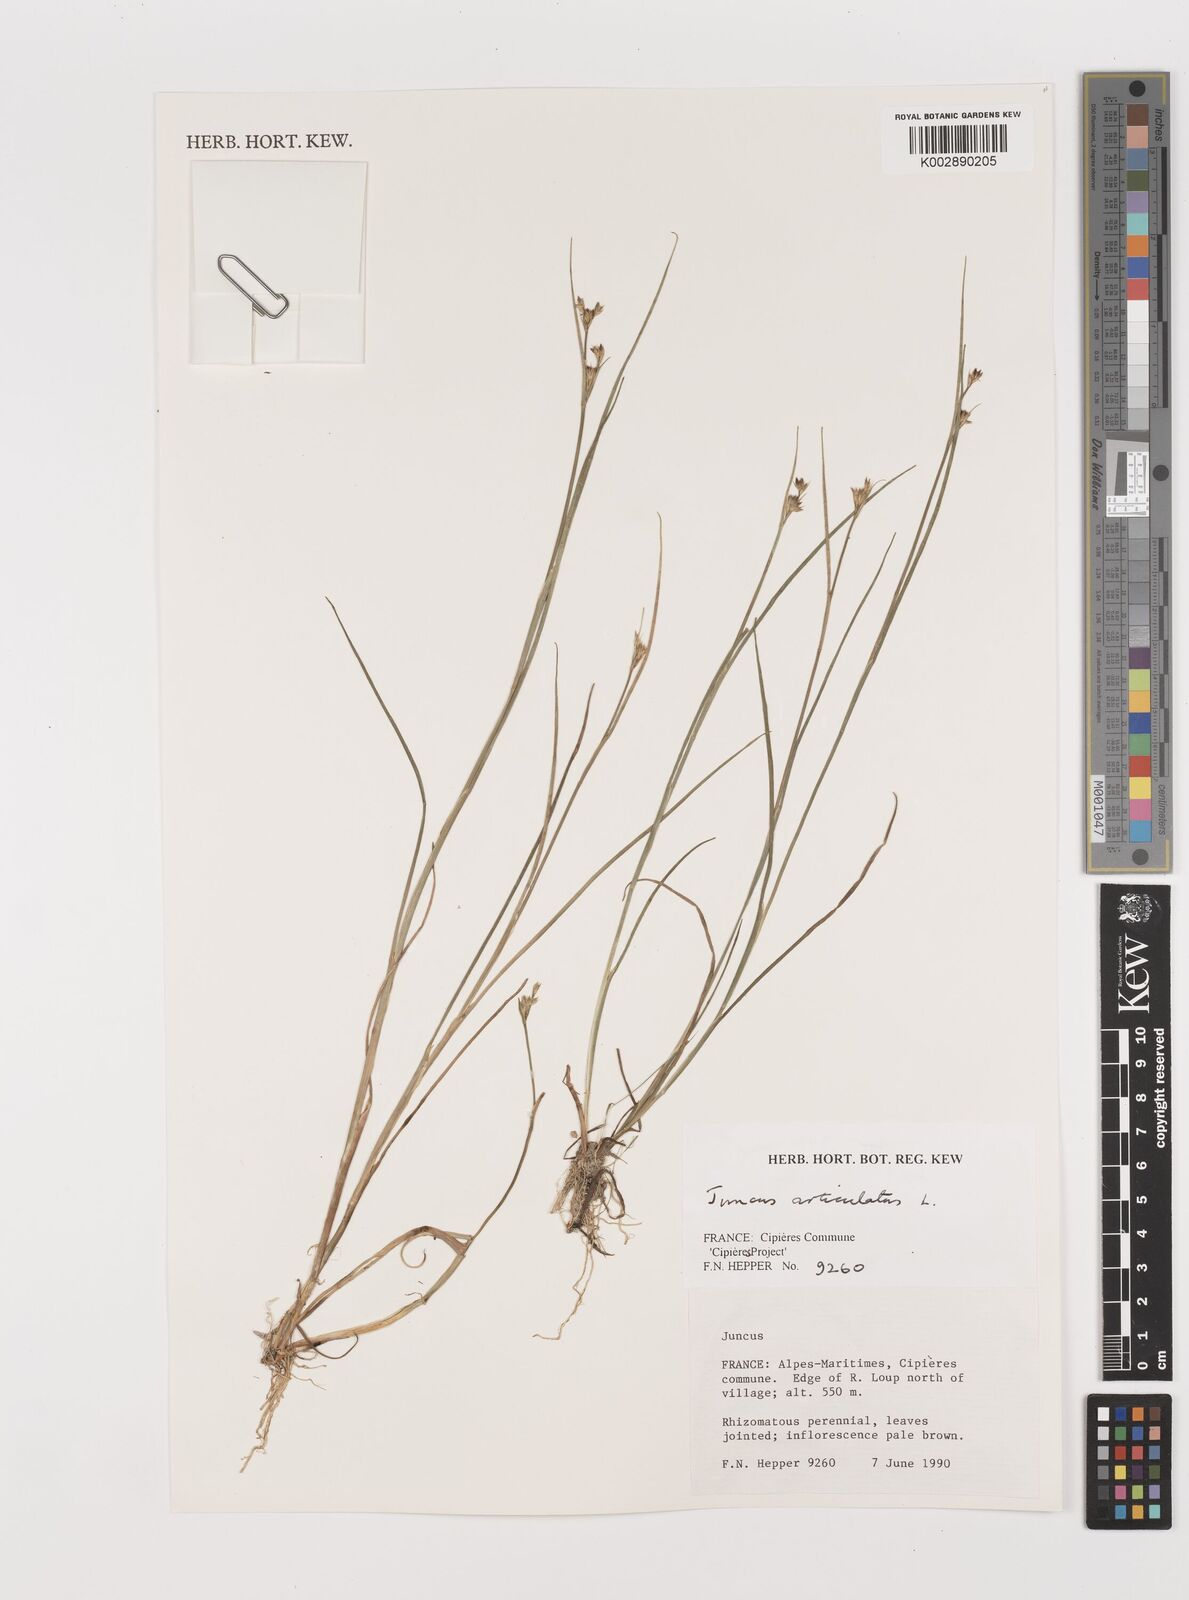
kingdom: Plantae
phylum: Tracheophyta
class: Liliopsida
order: Poales
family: Juncaceae
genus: Juncus
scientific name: Juncus articulatus
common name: Jointed rush
